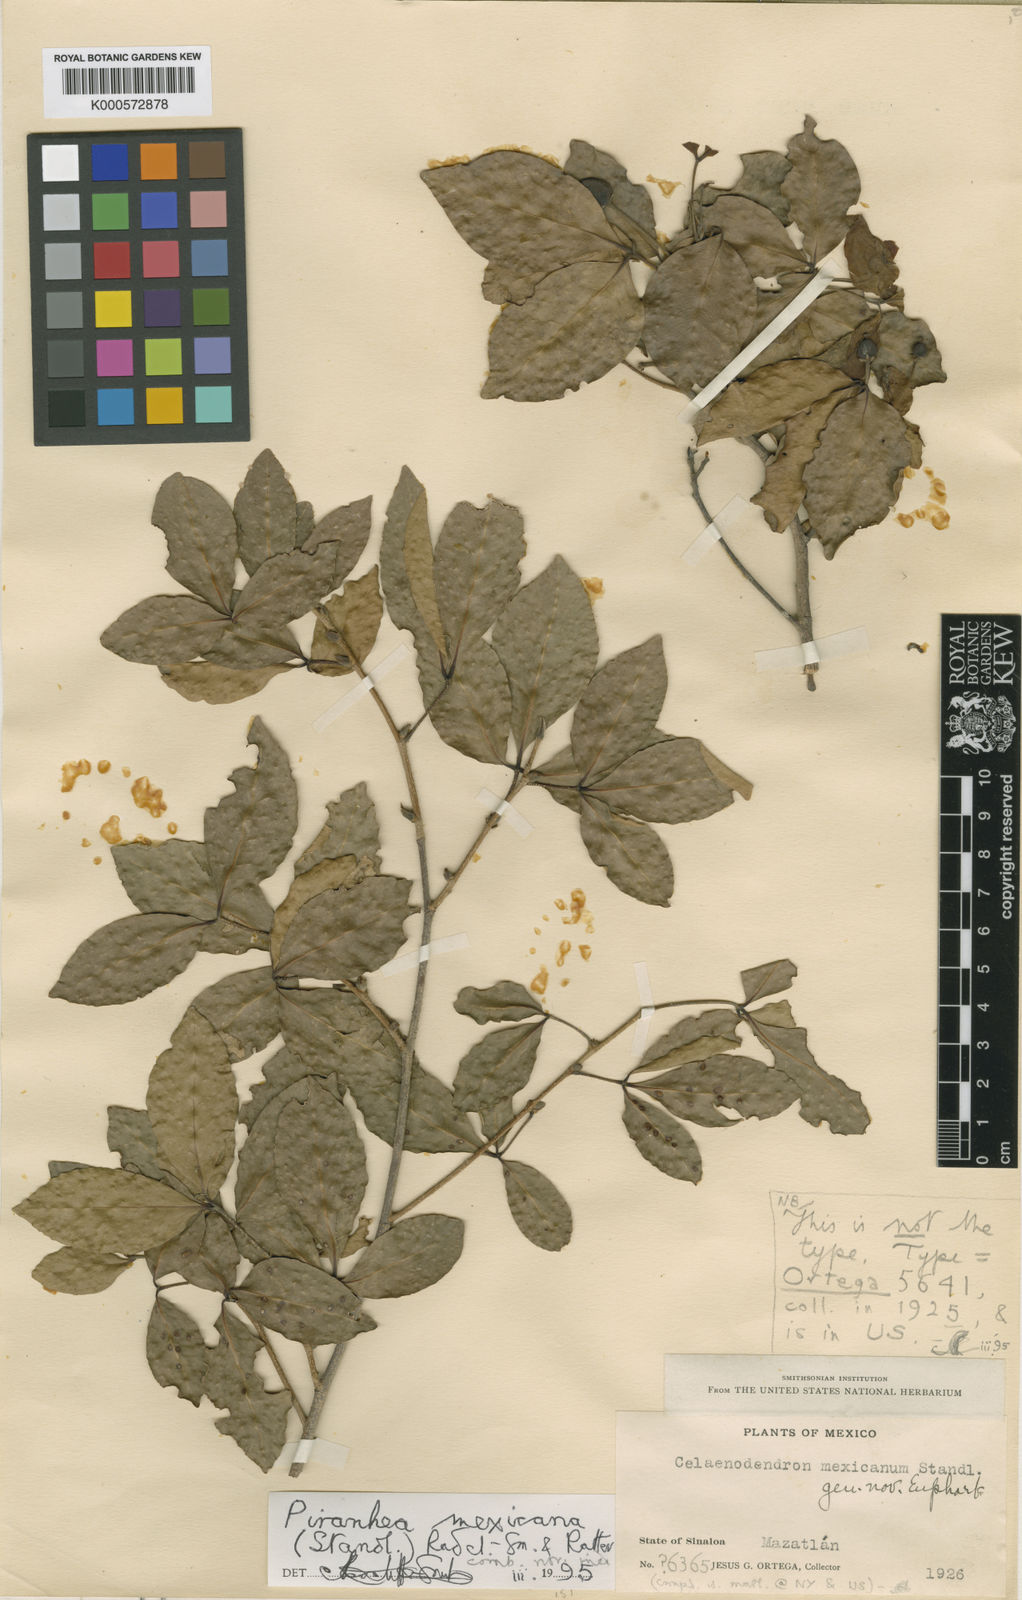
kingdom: Plantae
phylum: Tracheophyta
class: Magnoliopsida
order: Malpighiales
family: Picrodendraceae
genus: Piranhea
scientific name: Piranhea mexicana
